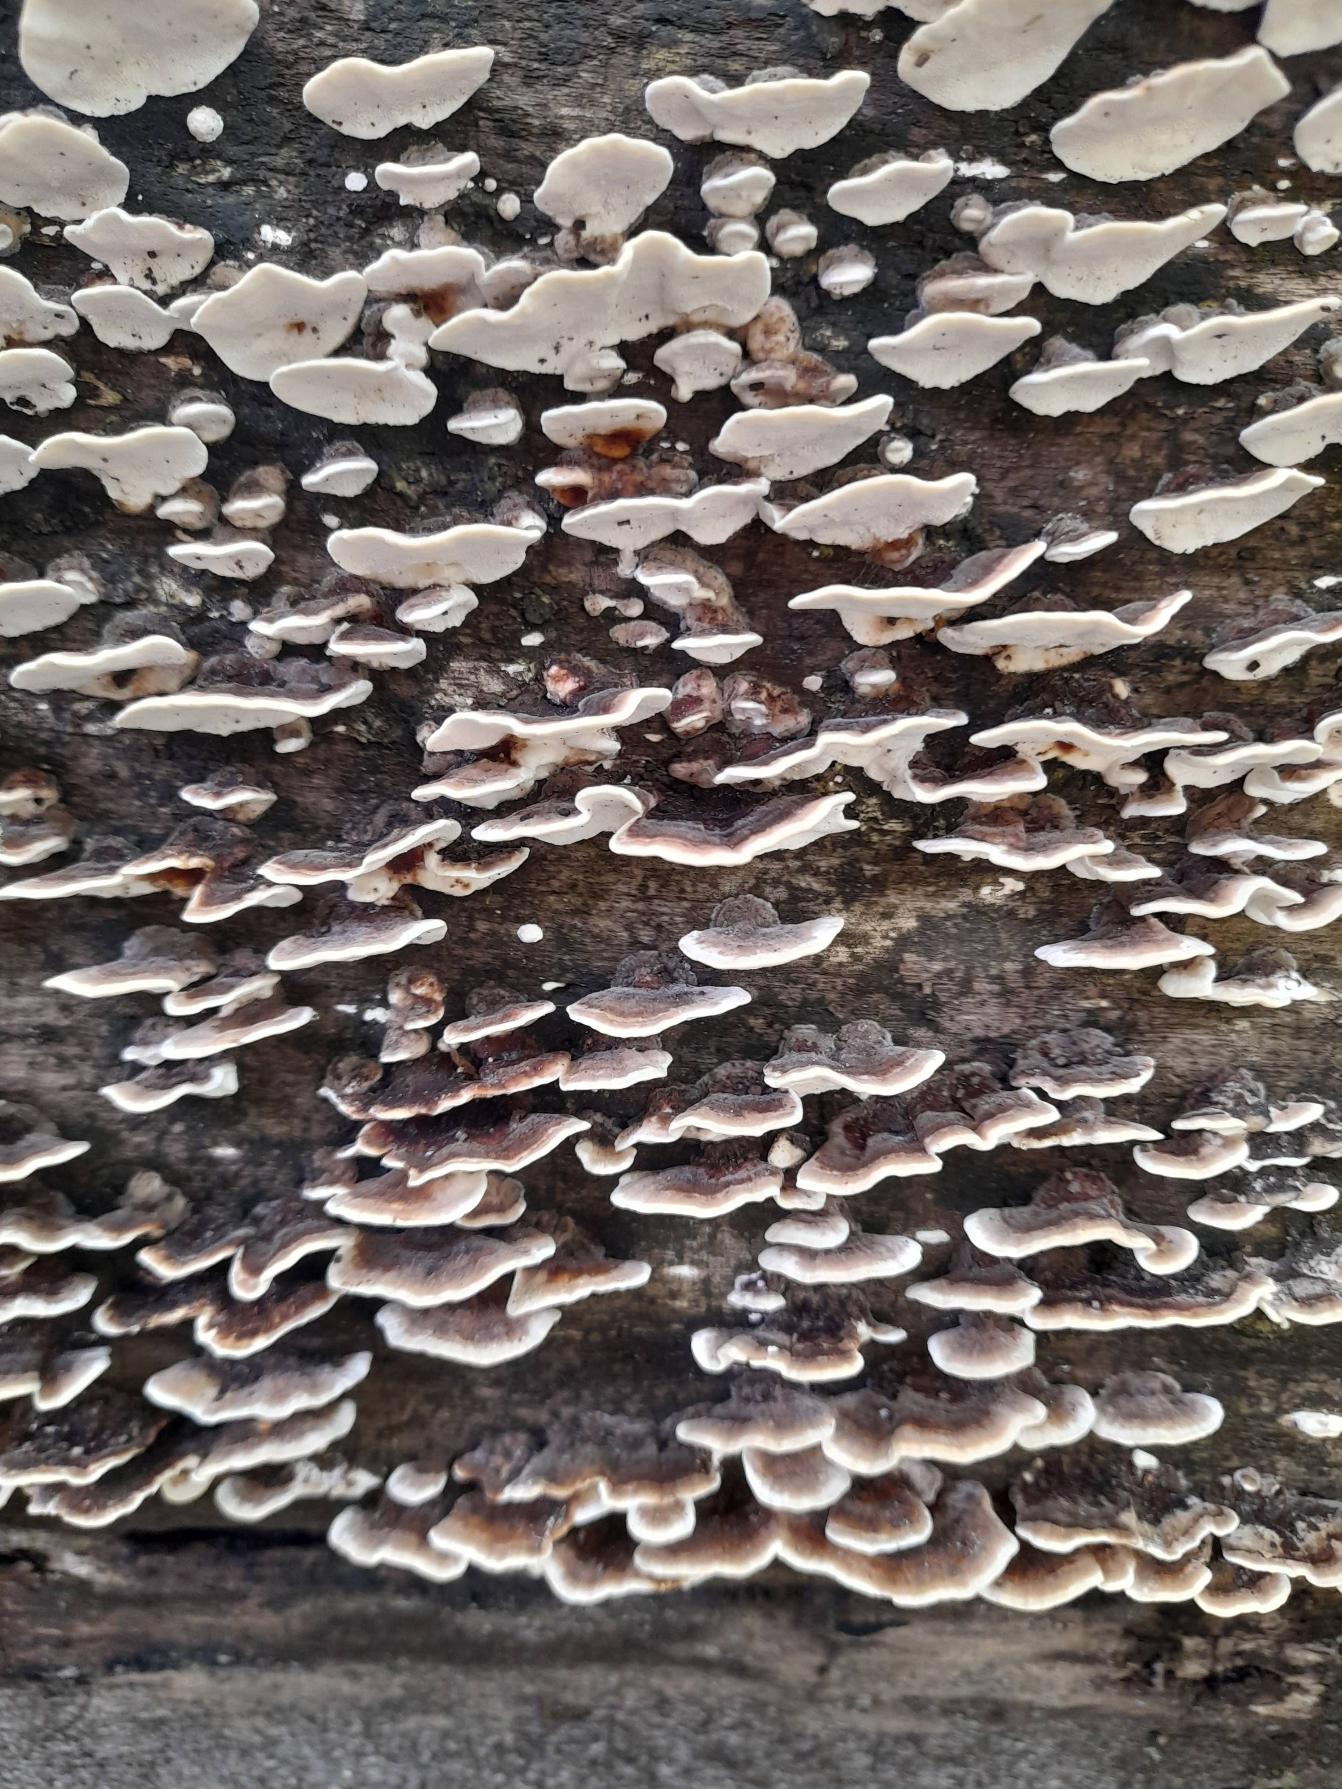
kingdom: Fungi
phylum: Basidiomycota
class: Agaricomycetes
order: Polyporales
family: Polyporaceae
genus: Trametes
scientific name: Trametes versicolor
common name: Broget læderporesvamp
